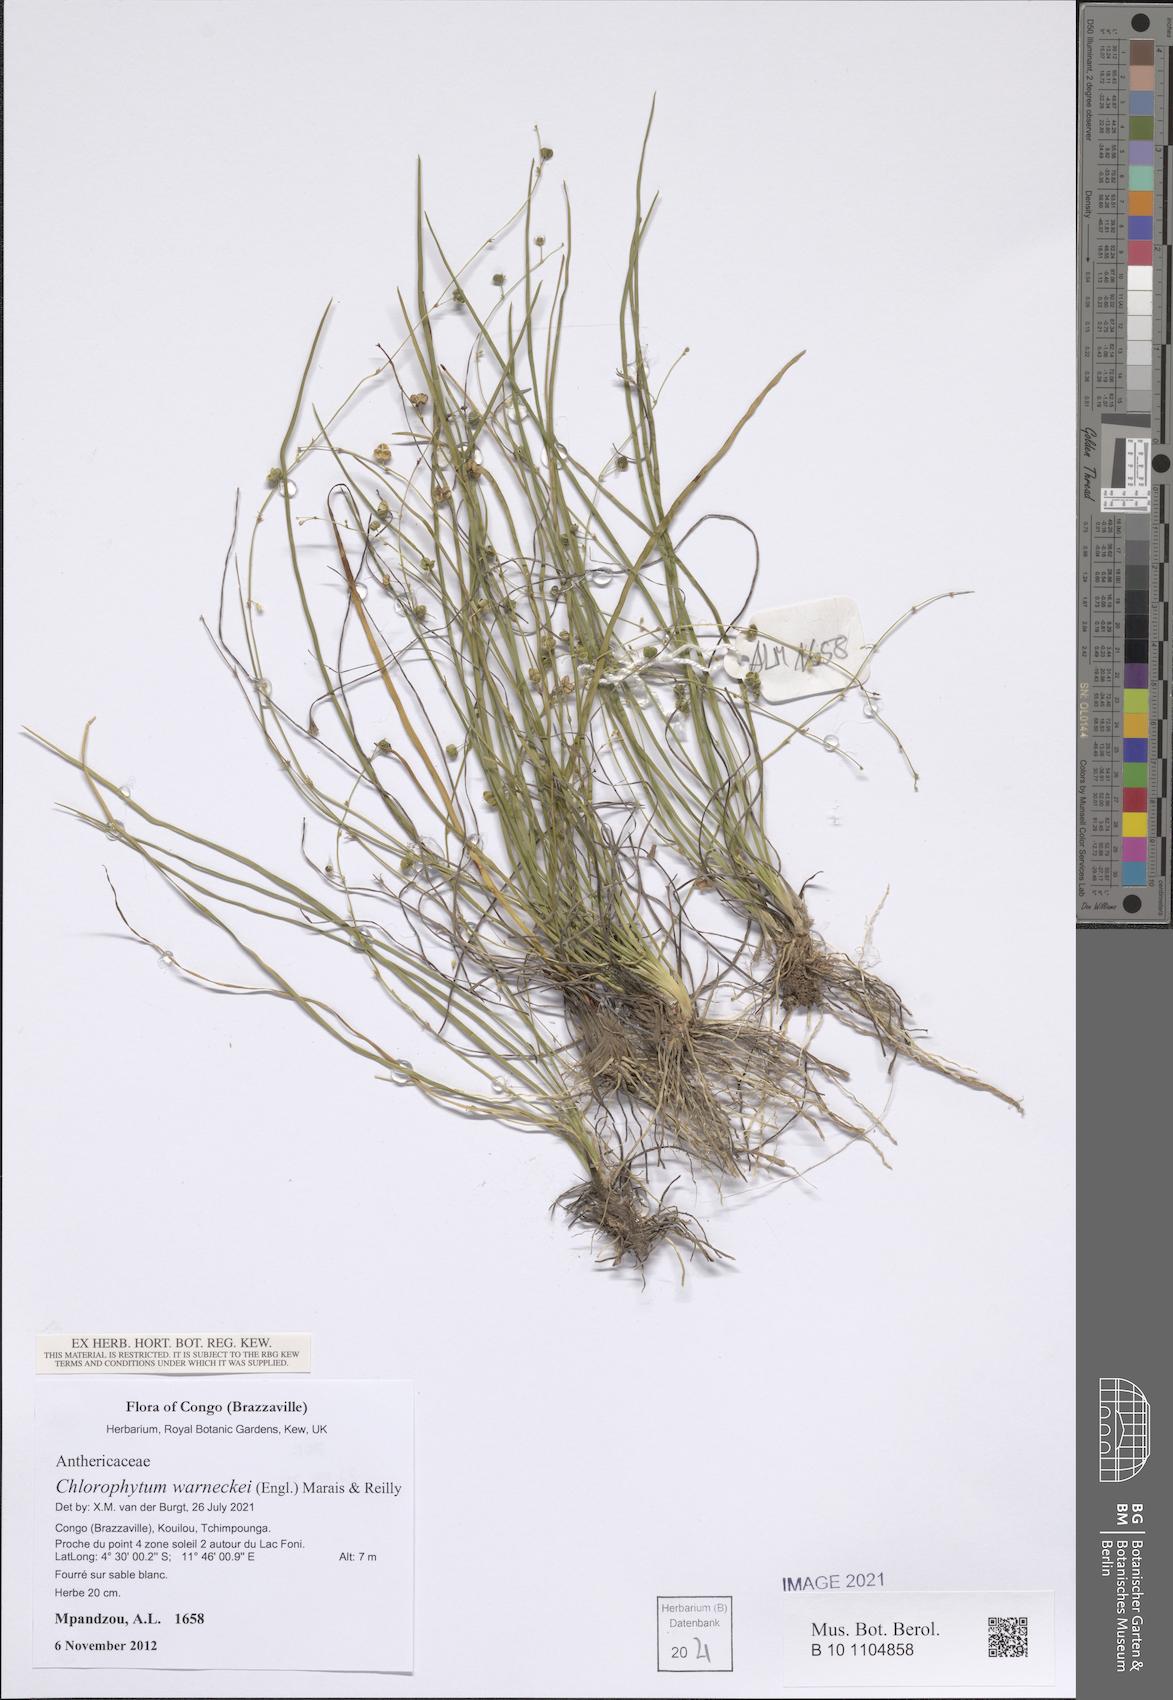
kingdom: Plantae
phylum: Tracheophyta
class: Liliopsida
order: Asparagales
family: Asparagaceae
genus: Chlorophytum
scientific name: Chlorophytum warneckei
